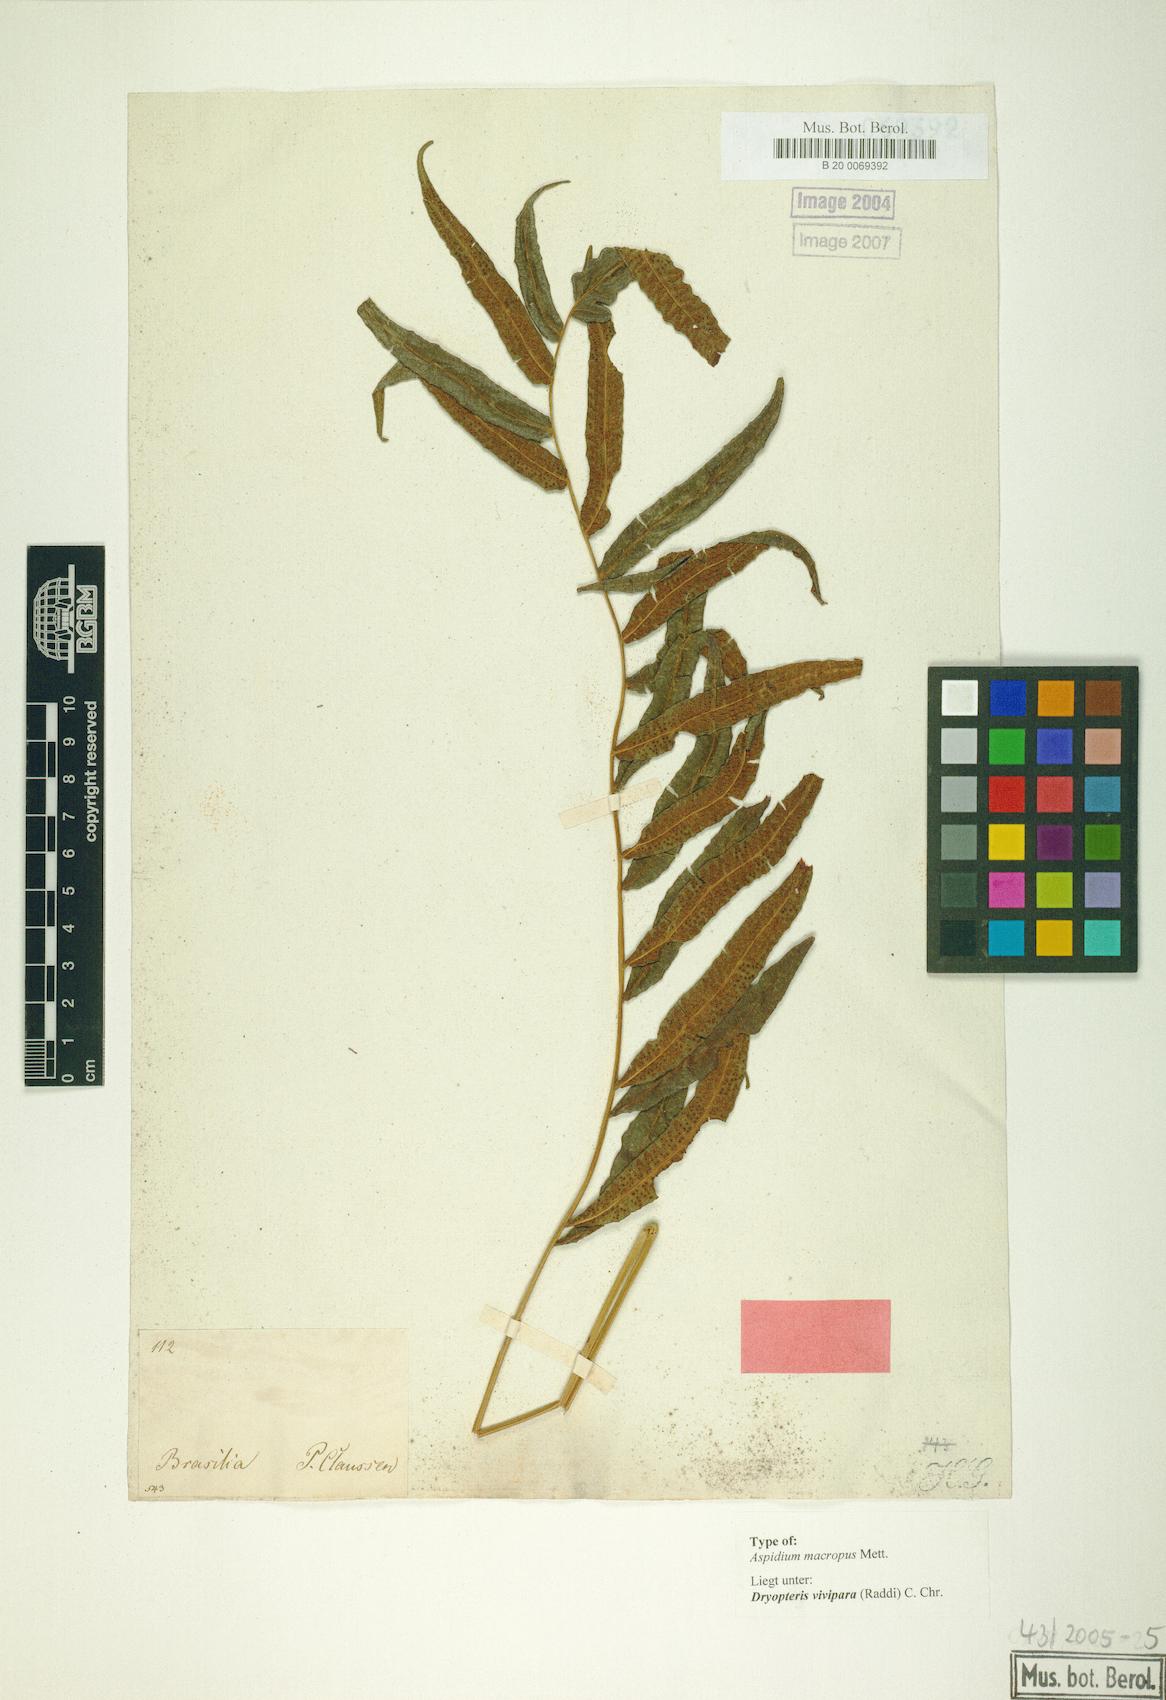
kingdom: Plantae
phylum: Tracheophyta
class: Polypodiopsida
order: Polypodiales
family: Thelypteridaceae
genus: Goniopteris
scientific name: Goniopteris vivipara
